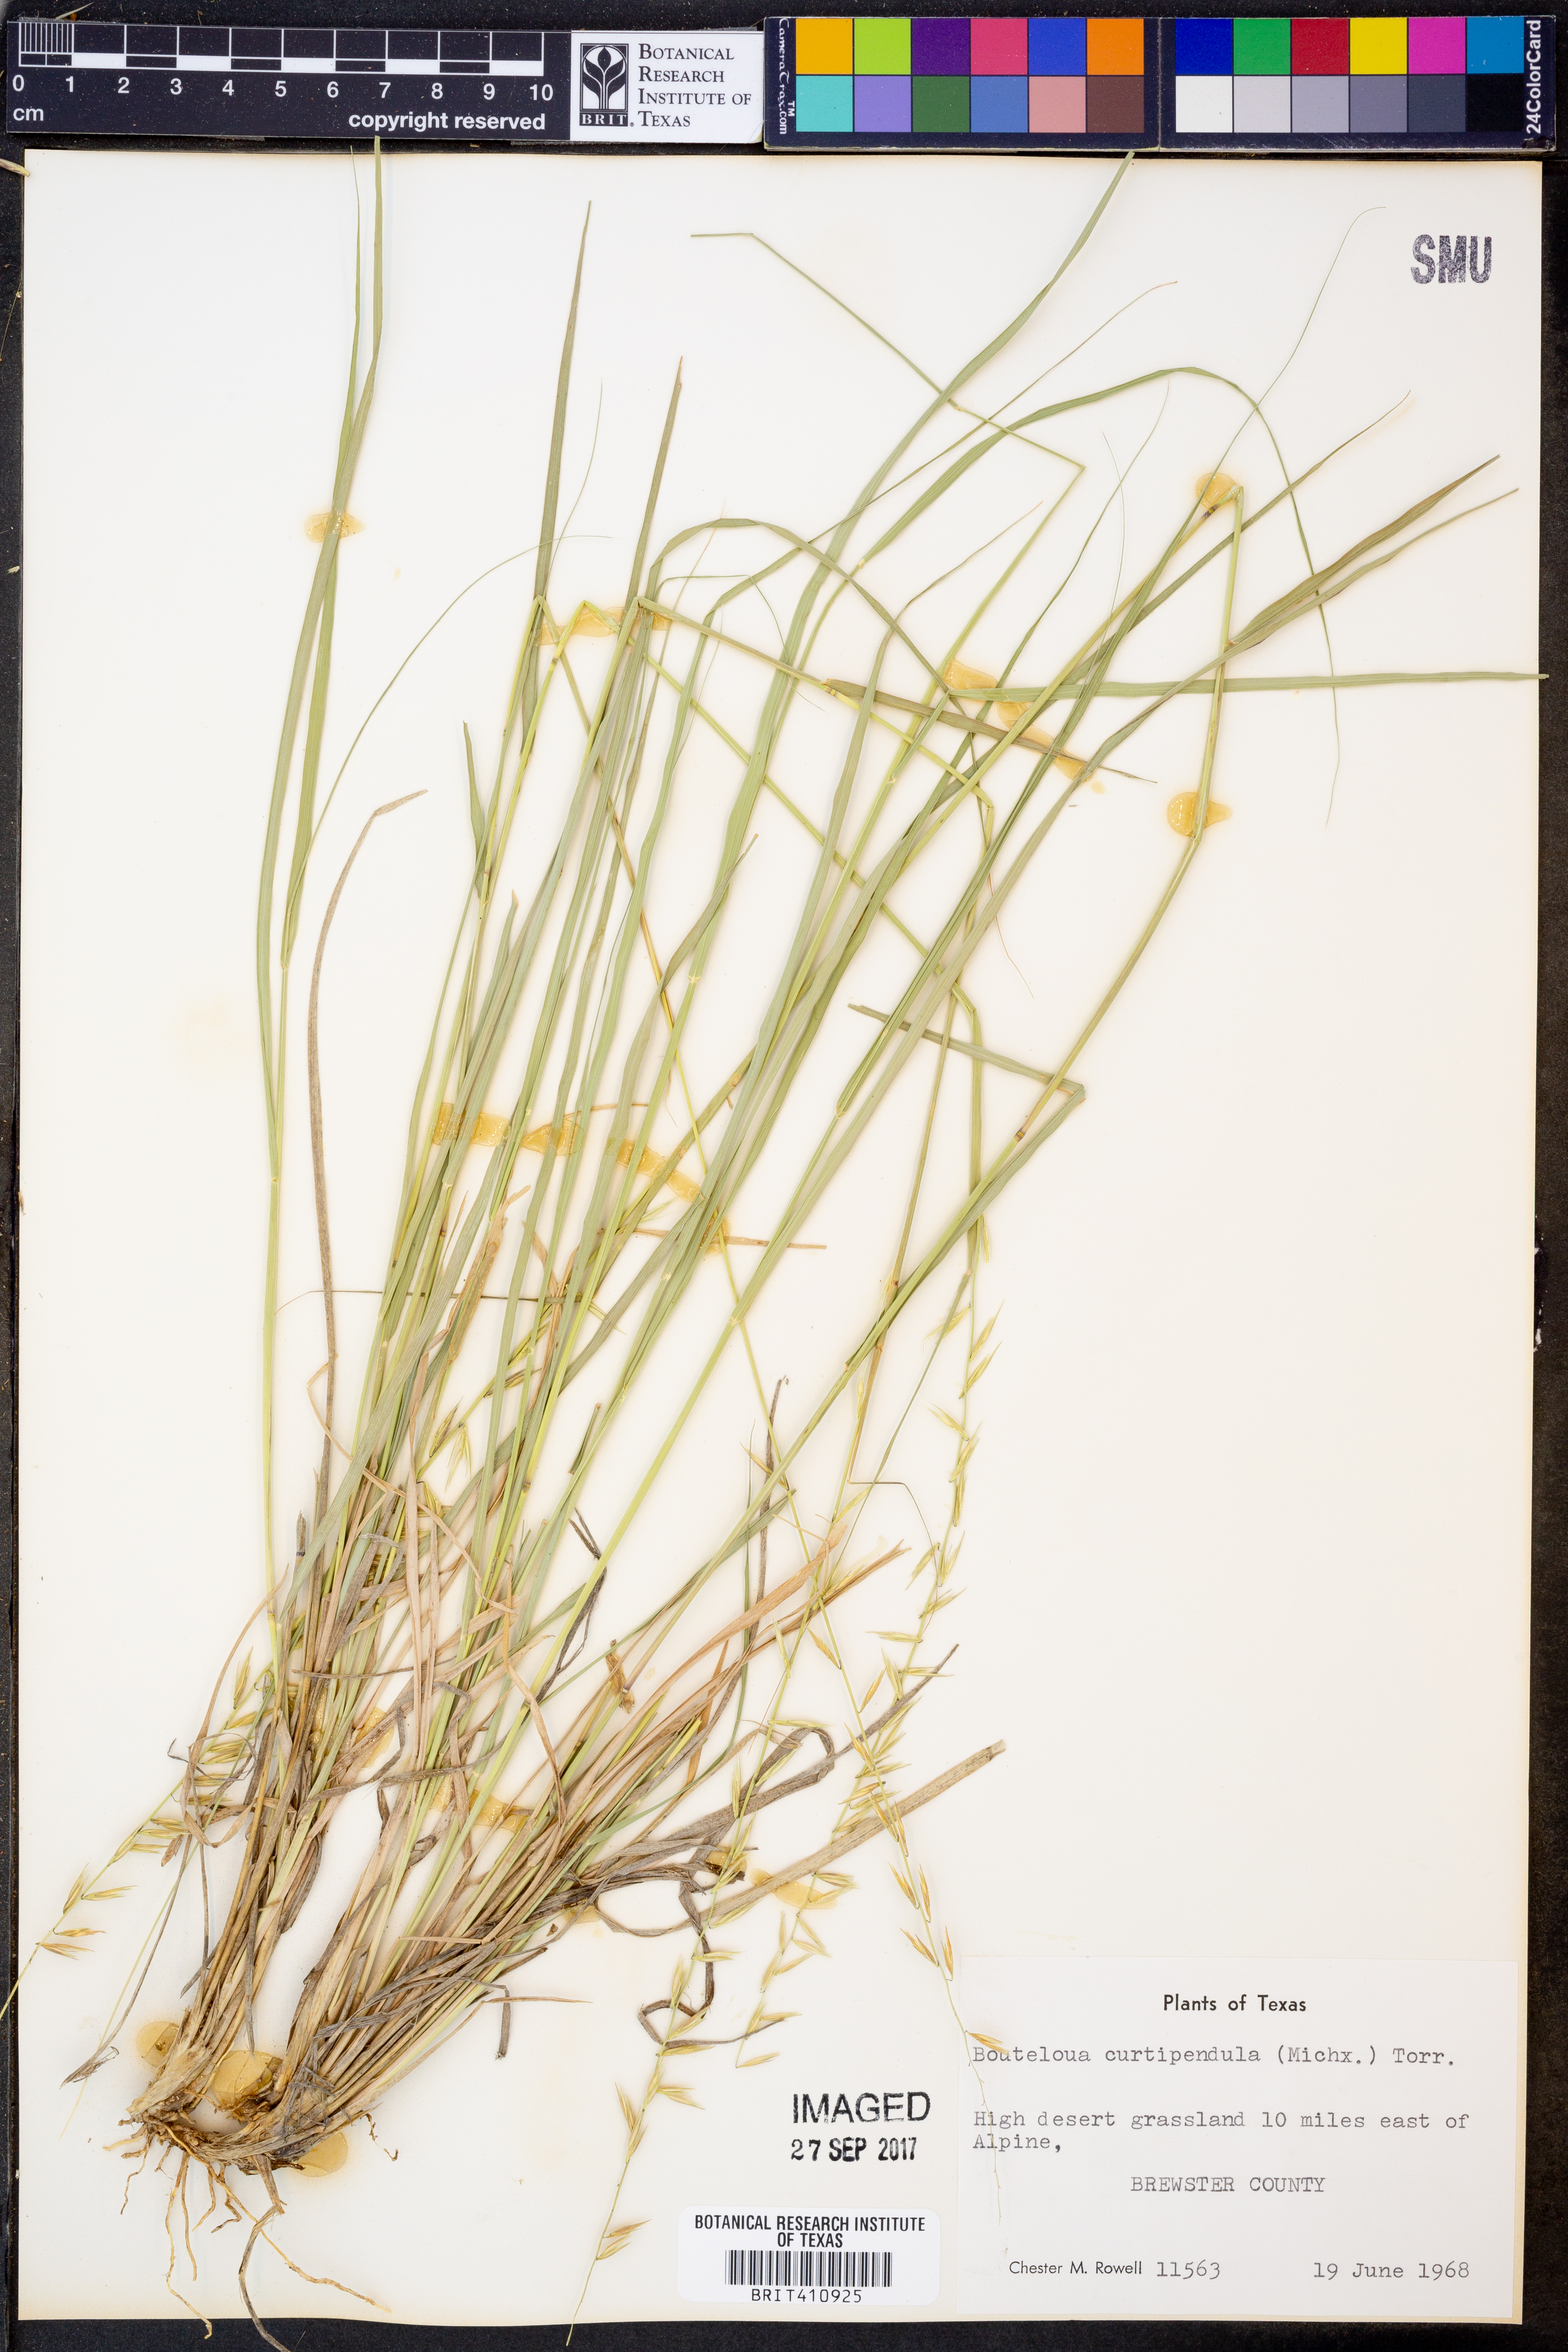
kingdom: Plantae
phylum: Tracheophyta
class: Liliopsida
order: Poales
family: Poaceae
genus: Bouteloua
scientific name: Bouteloua curtipendula
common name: Side-oats grama
